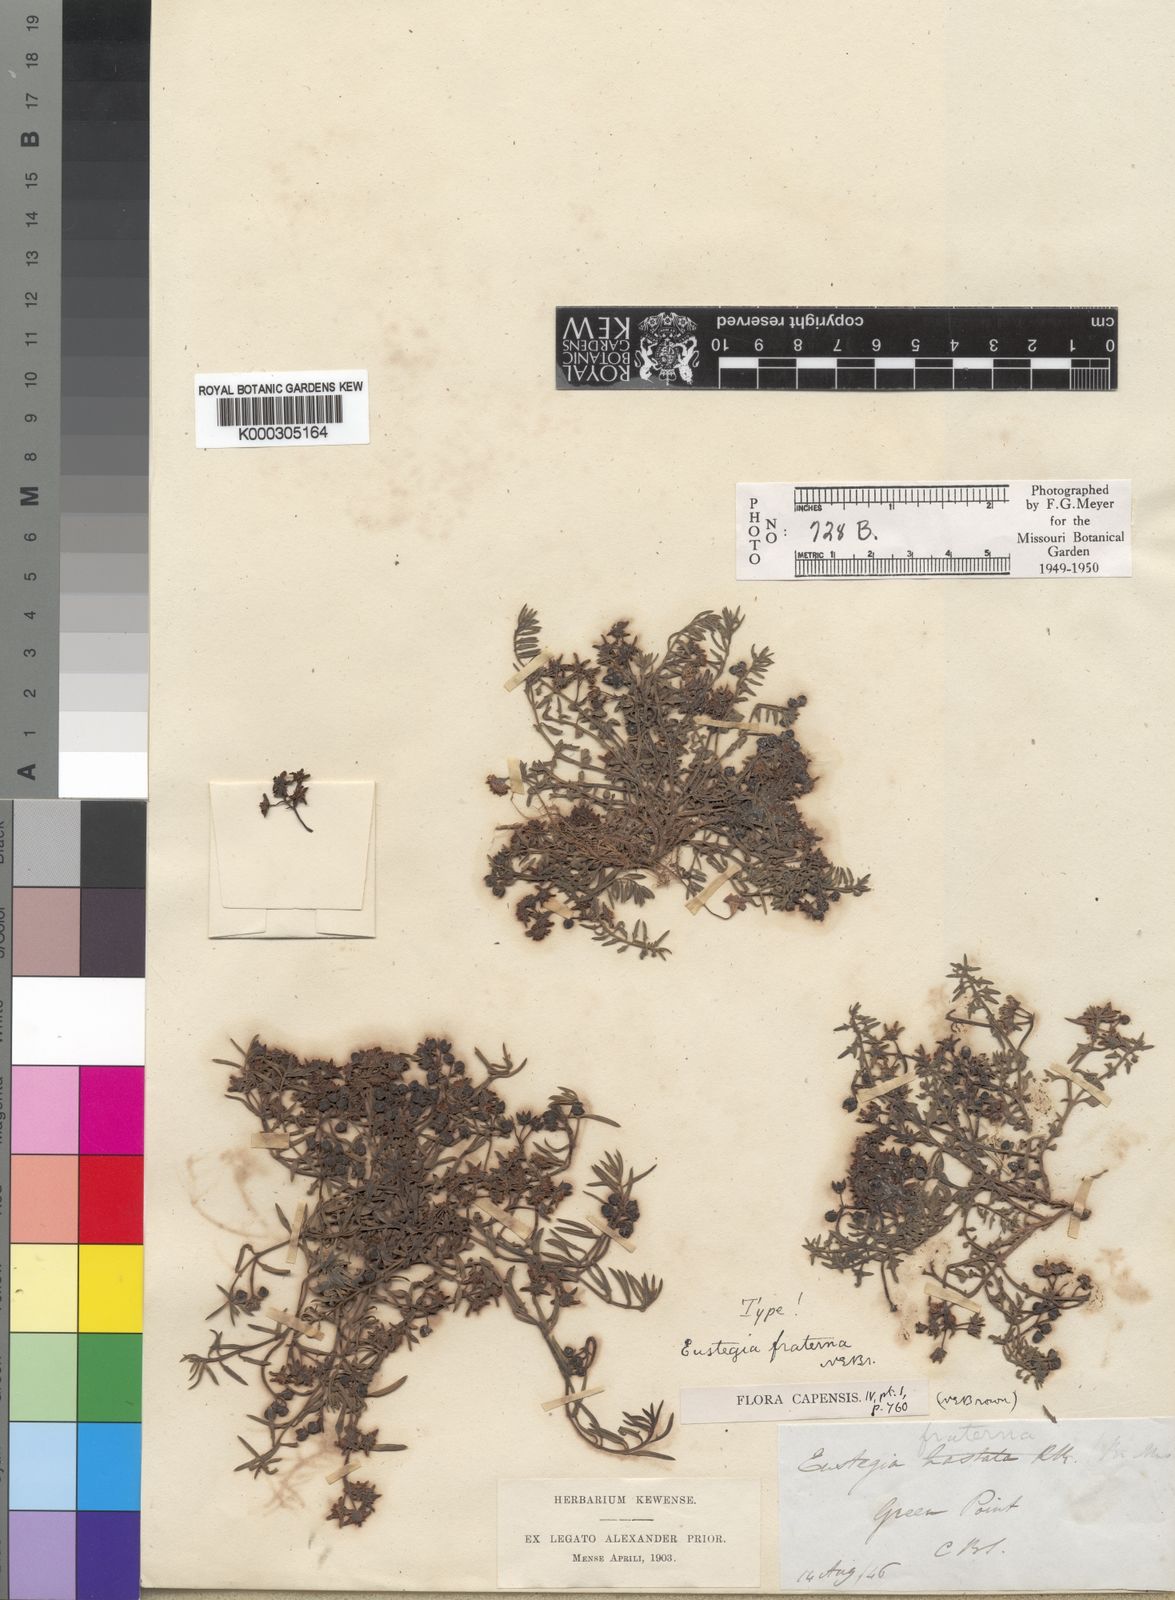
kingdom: Plantae
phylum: Tracheophyta
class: Magnoliopsida
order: Gentianales
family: Apocynaceae
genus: Eustegia
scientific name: Eustegia fraterna
